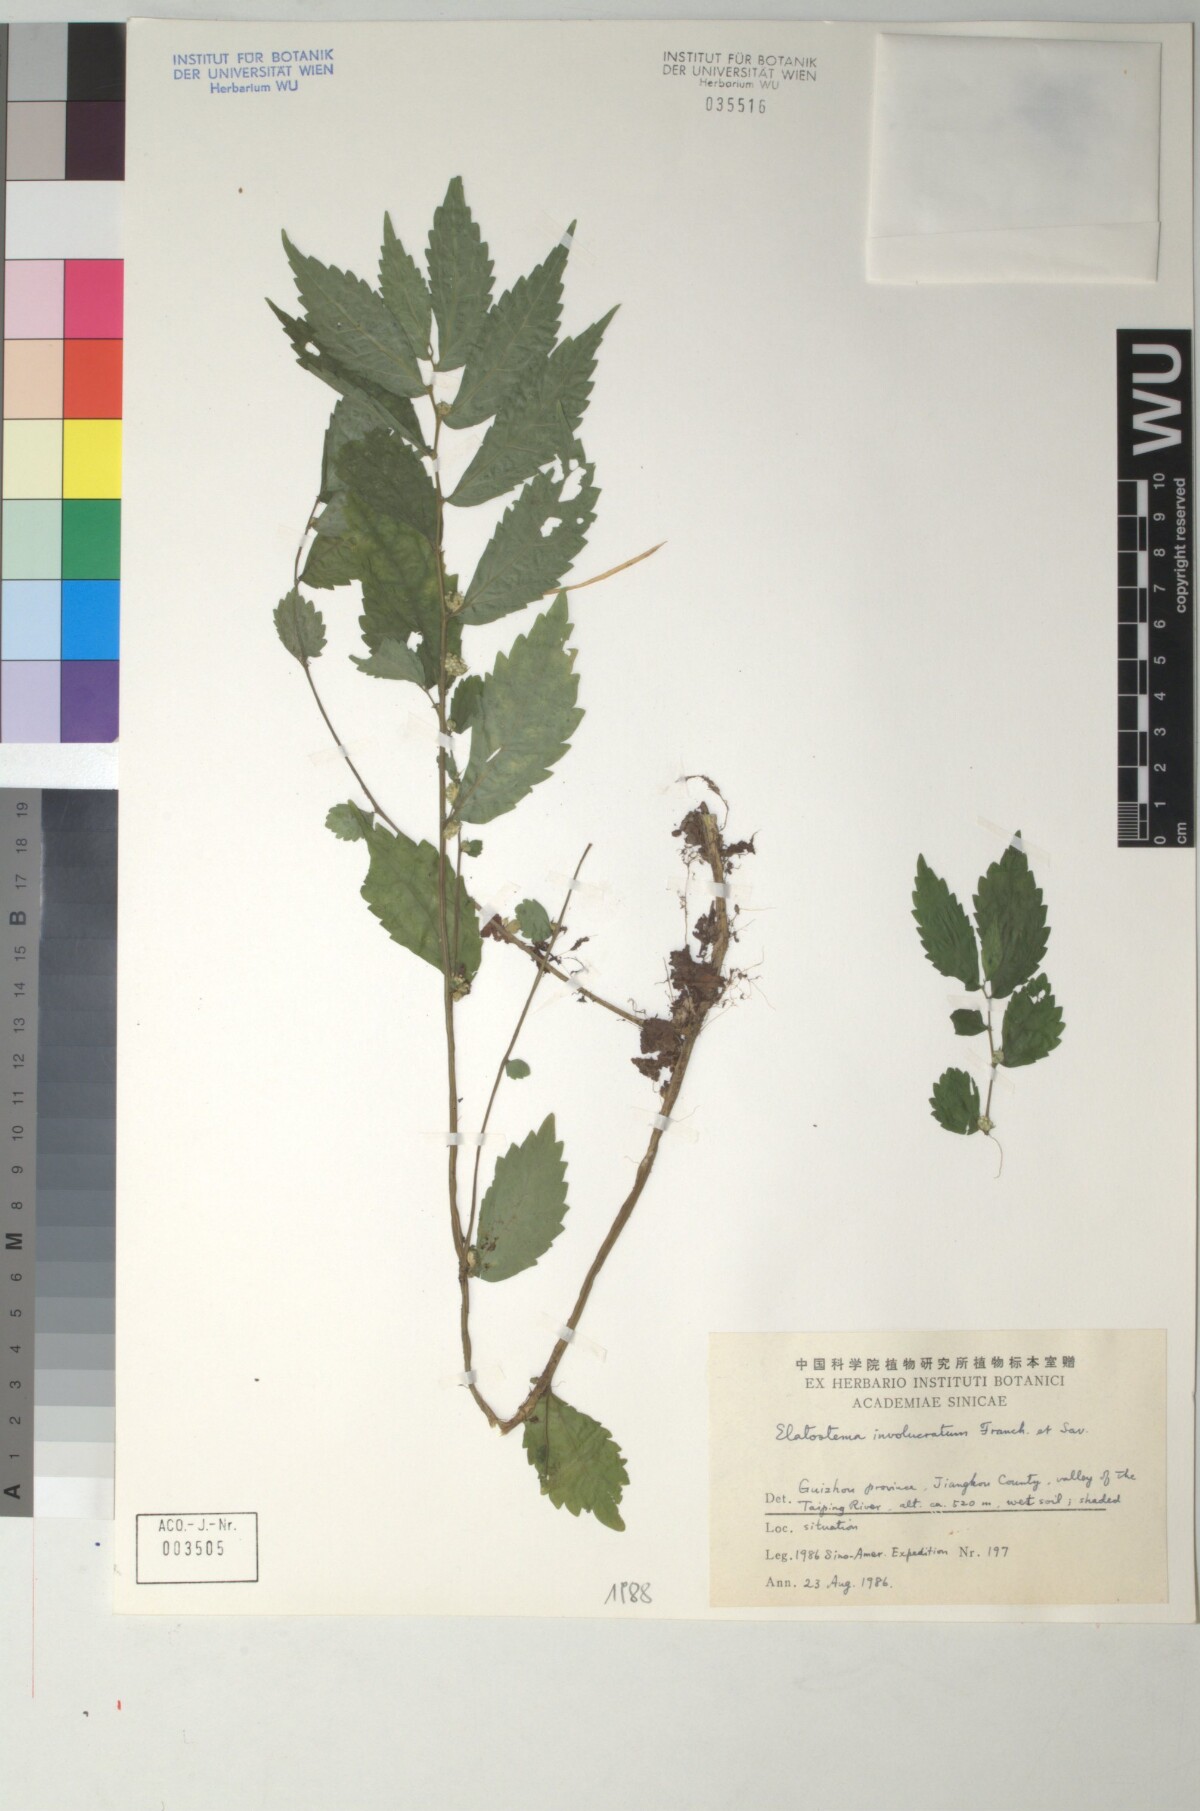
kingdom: Plantae
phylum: Tracheophyta
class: Magnoliopsida
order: Rosales
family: Urticaceae
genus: Elatostema
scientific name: Elatostema involucratum
